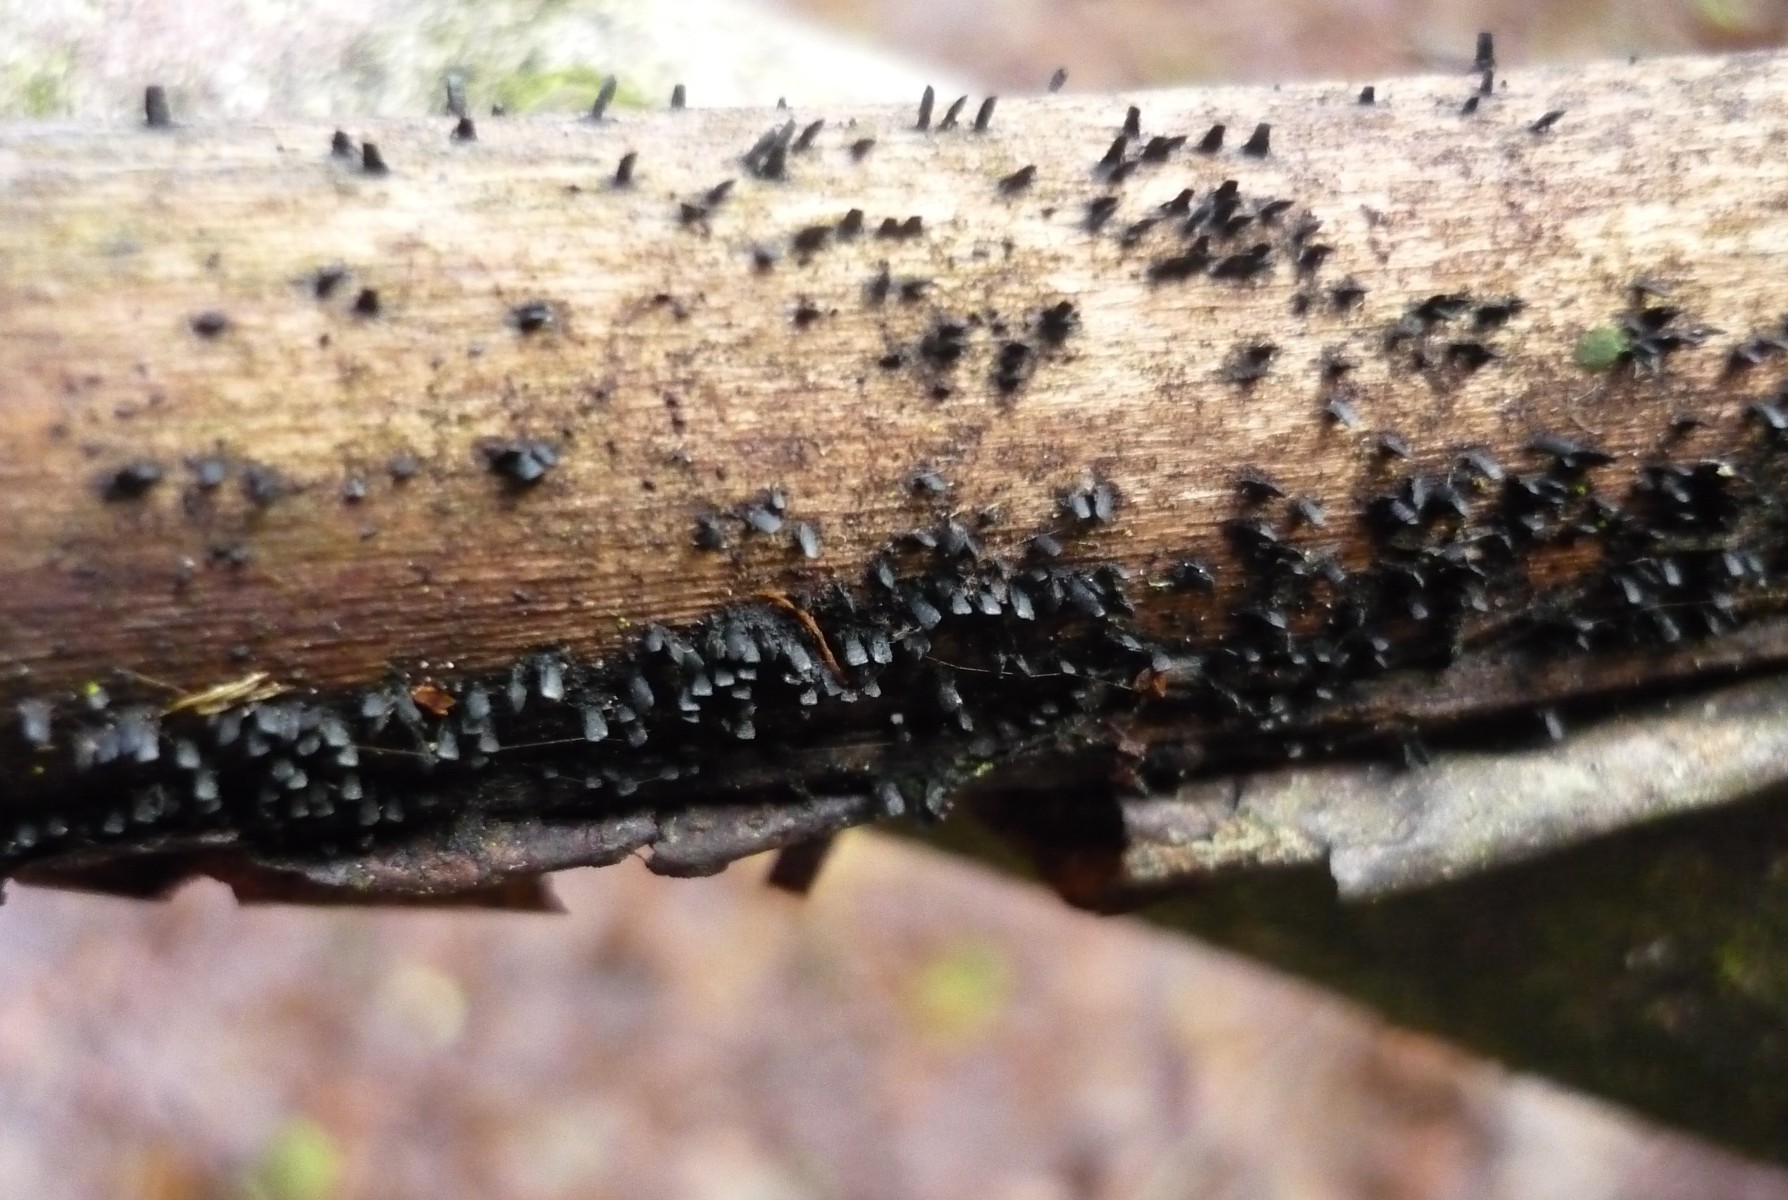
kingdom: Fungi
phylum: Ascomycota
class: Eurotiomycetes
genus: Glyphium
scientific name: Glyphium elatum
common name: kuløkse
